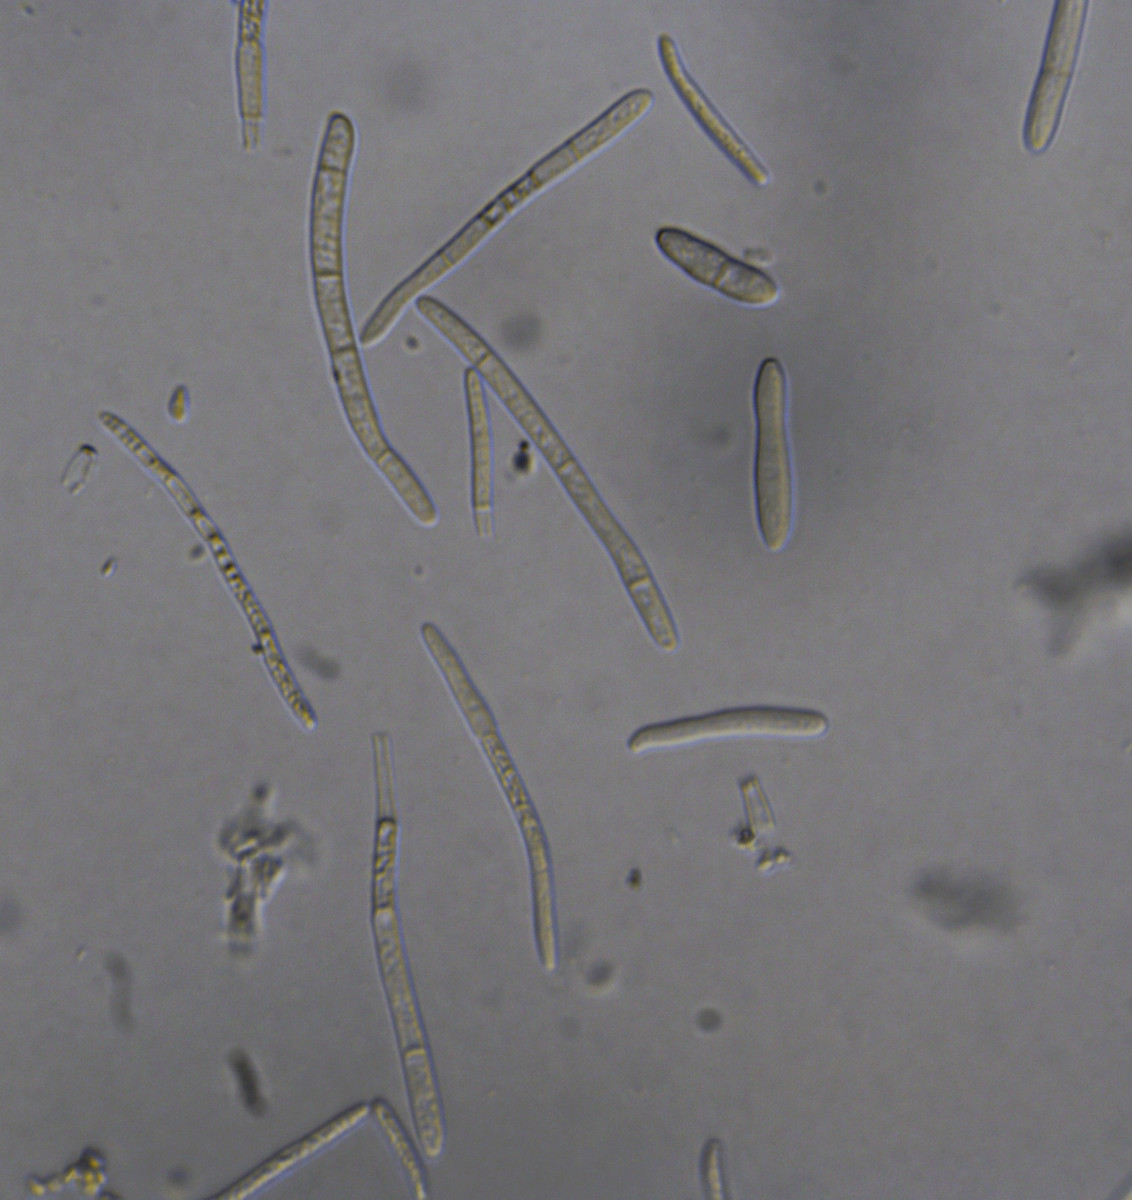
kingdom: Fungi
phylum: Ascomycota
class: Dothideomycetes
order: Mycosphaerellales
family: Mycosphaerellaceae
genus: Ramularia
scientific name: Ramularia vallisumbrosae
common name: Narcissus white mould disease
